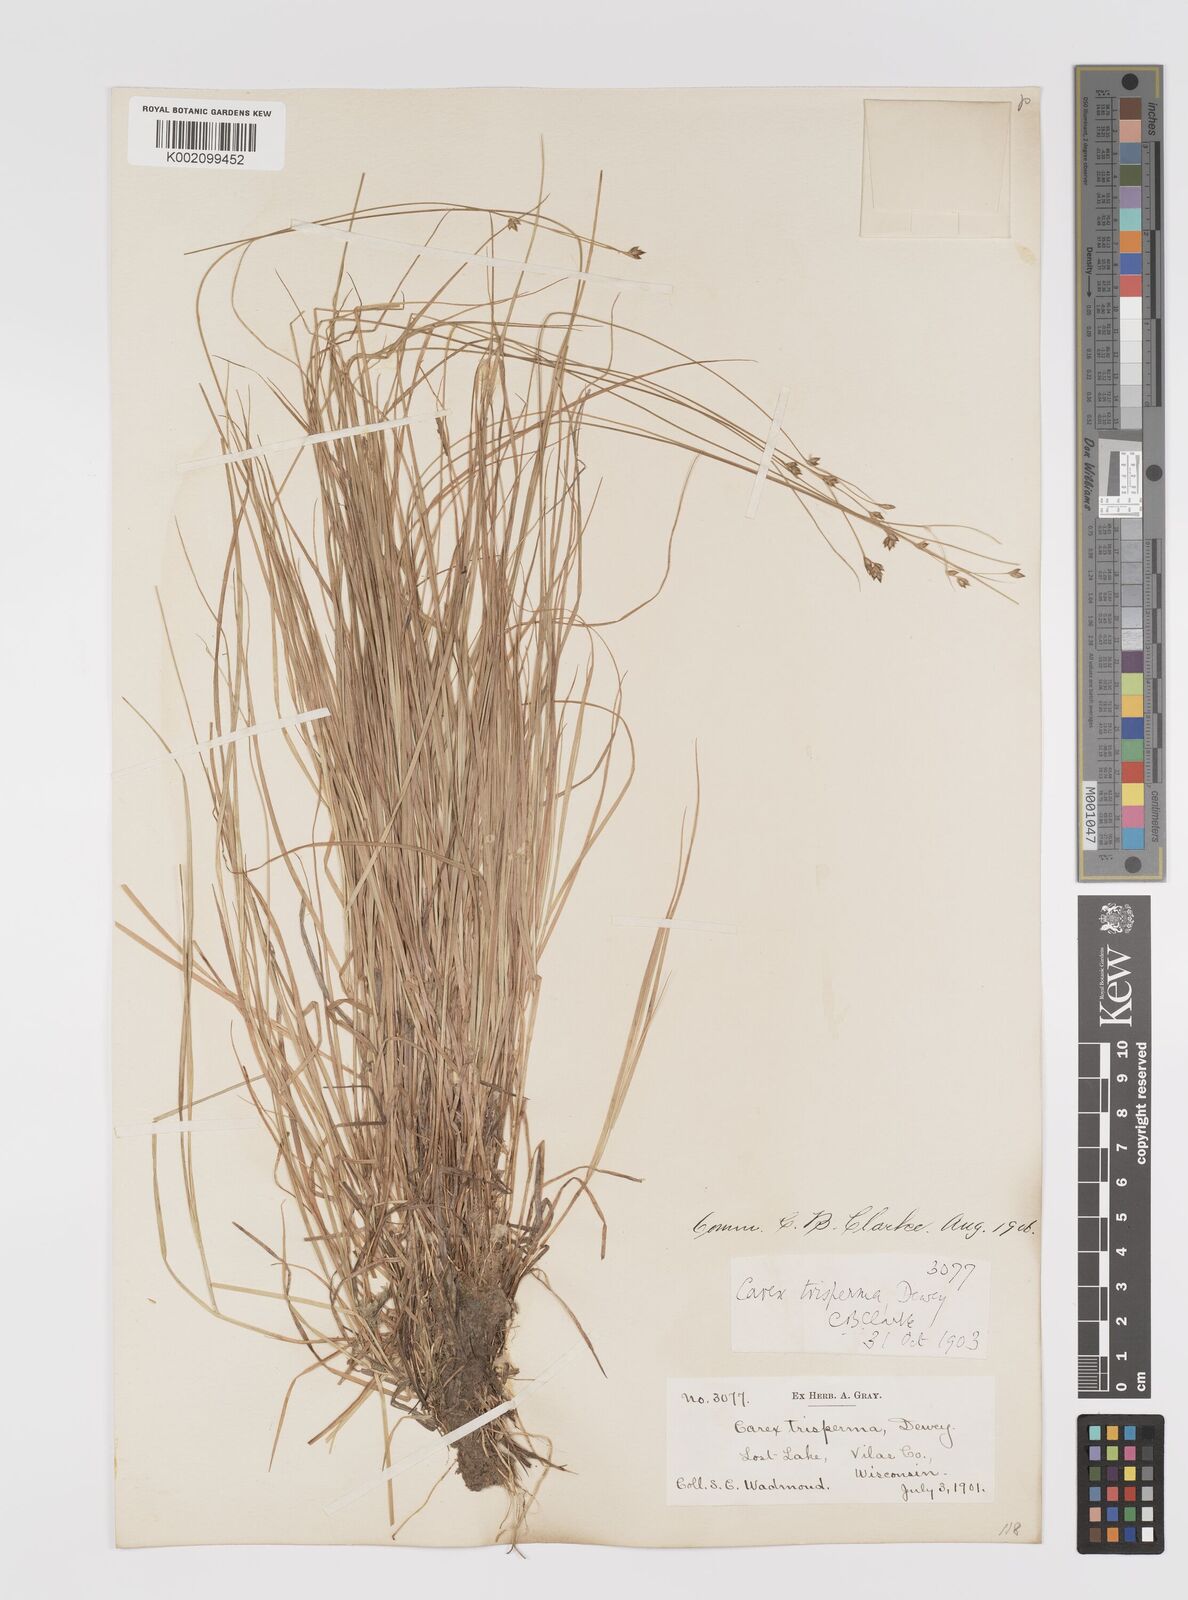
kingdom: Plantae
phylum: Tracheophyta
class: Liliopsida
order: Poales
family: Cyperaceae
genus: Carex
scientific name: Carex trisperma
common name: Three-seeded sedge
